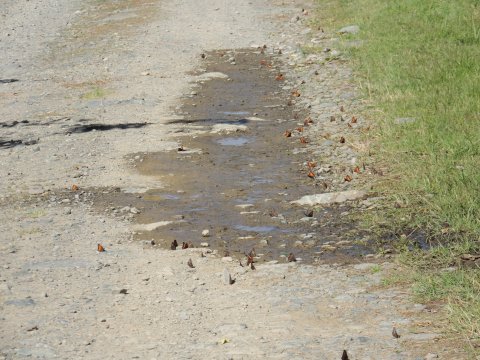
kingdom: Animalia
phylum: Arthropoda
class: Insecta
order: Lepidoptera
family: Nymphalidae
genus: Nymphalis
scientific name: Nymphalis californica
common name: California Tortoiseshell
